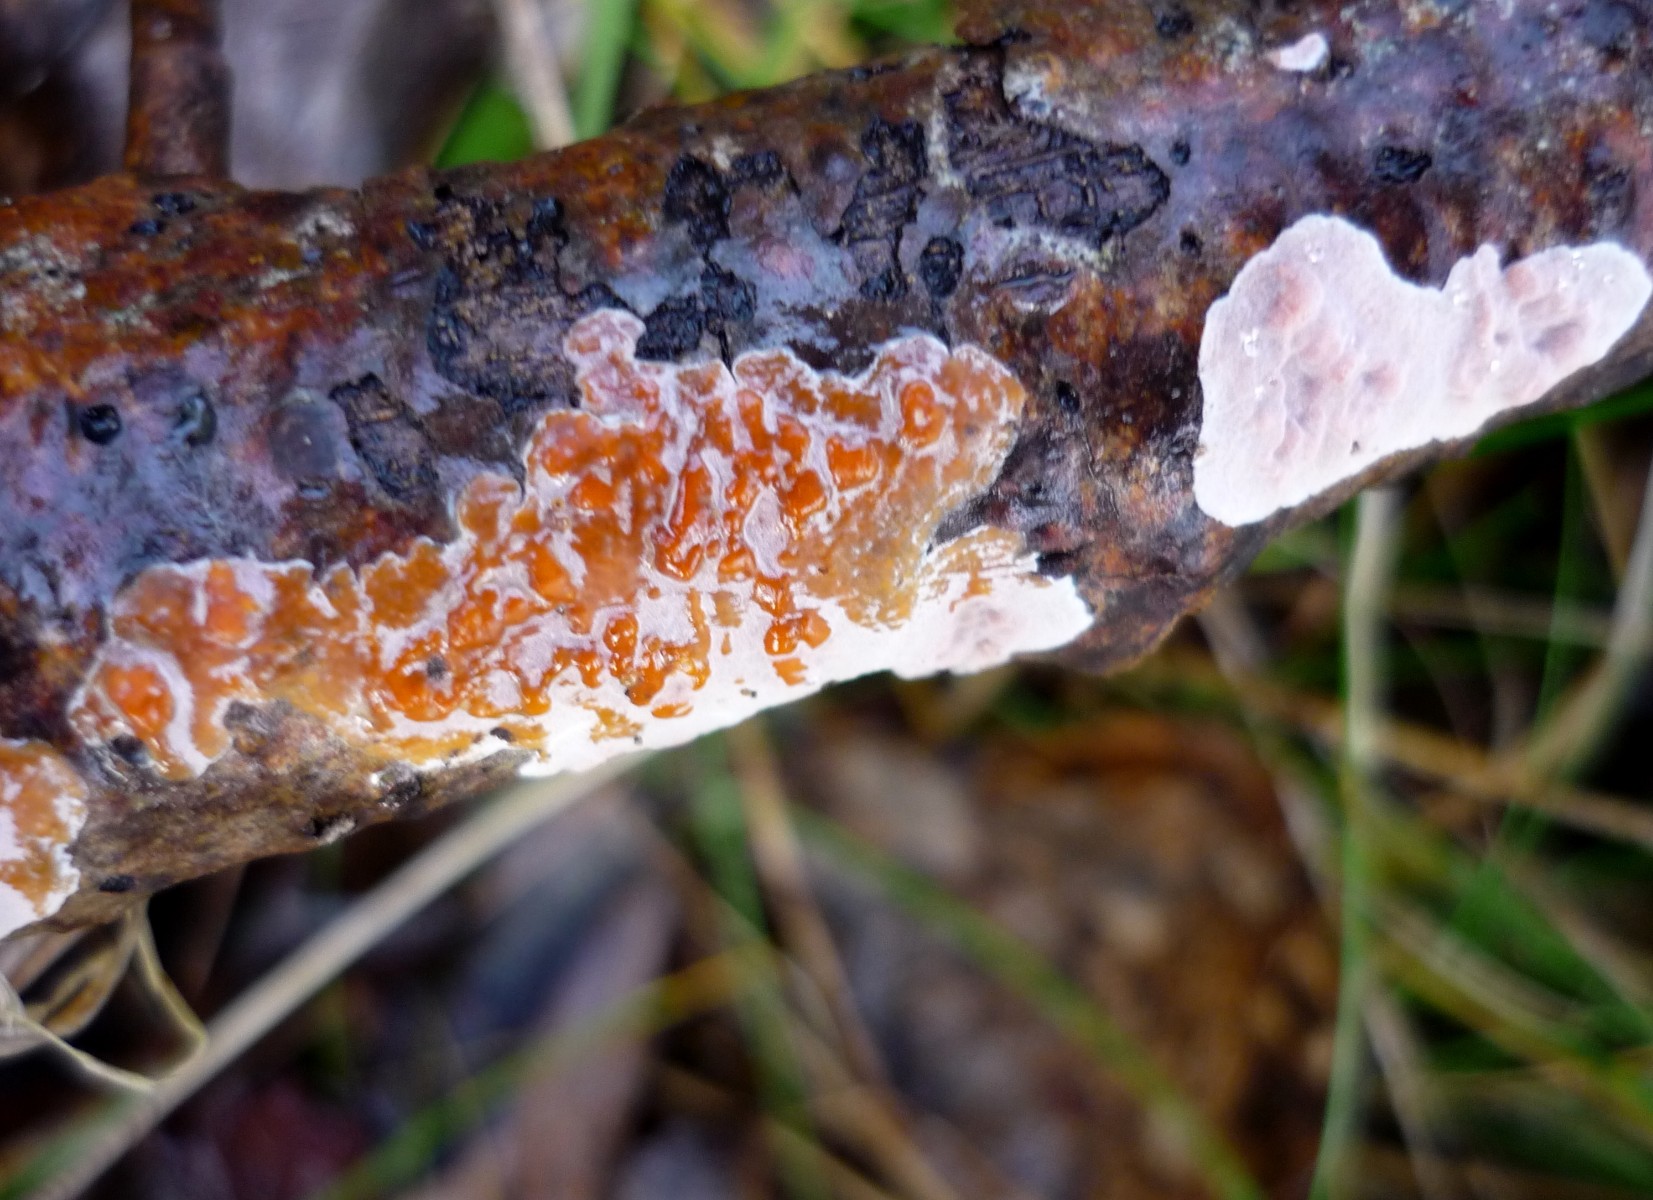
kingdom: Fungi
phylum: Basidiomycota
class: Agaricomycetes
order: Russulales
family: Peniophoraceae
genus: Peniophora
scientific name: Peniophora polygonia
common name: polygon-voksskind
